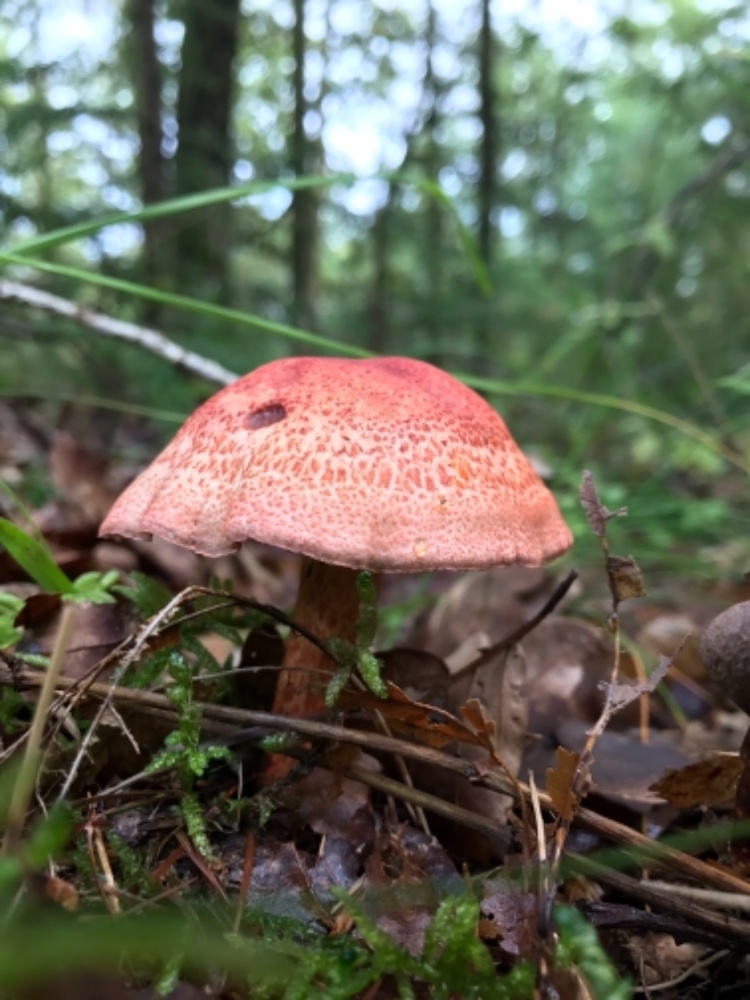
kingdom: Fungi
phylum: Basidiomycota
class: Agaricomycetes
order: Agaricales
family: Cortinariaceae
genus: Cortinarius
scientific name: Cortinarius bolaris
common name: cinnoberskællet slørhat
